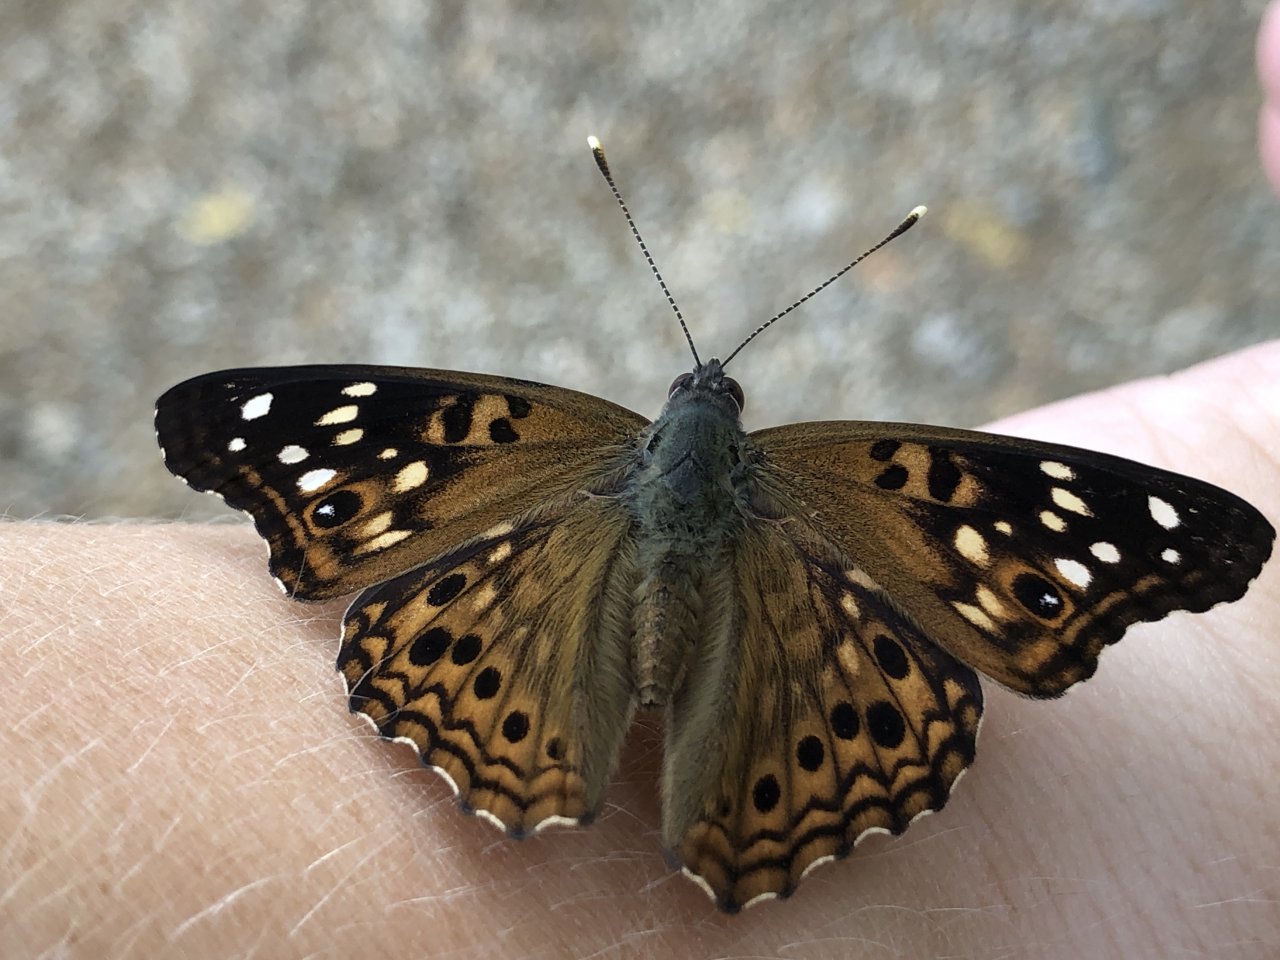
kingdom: Animalia
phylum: Arthropoda
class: Insecta
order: Lepidoptera
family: Nymphalidae
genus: Asterocampa
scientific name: Asterocampa celtis
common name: Hackberry Emperor
